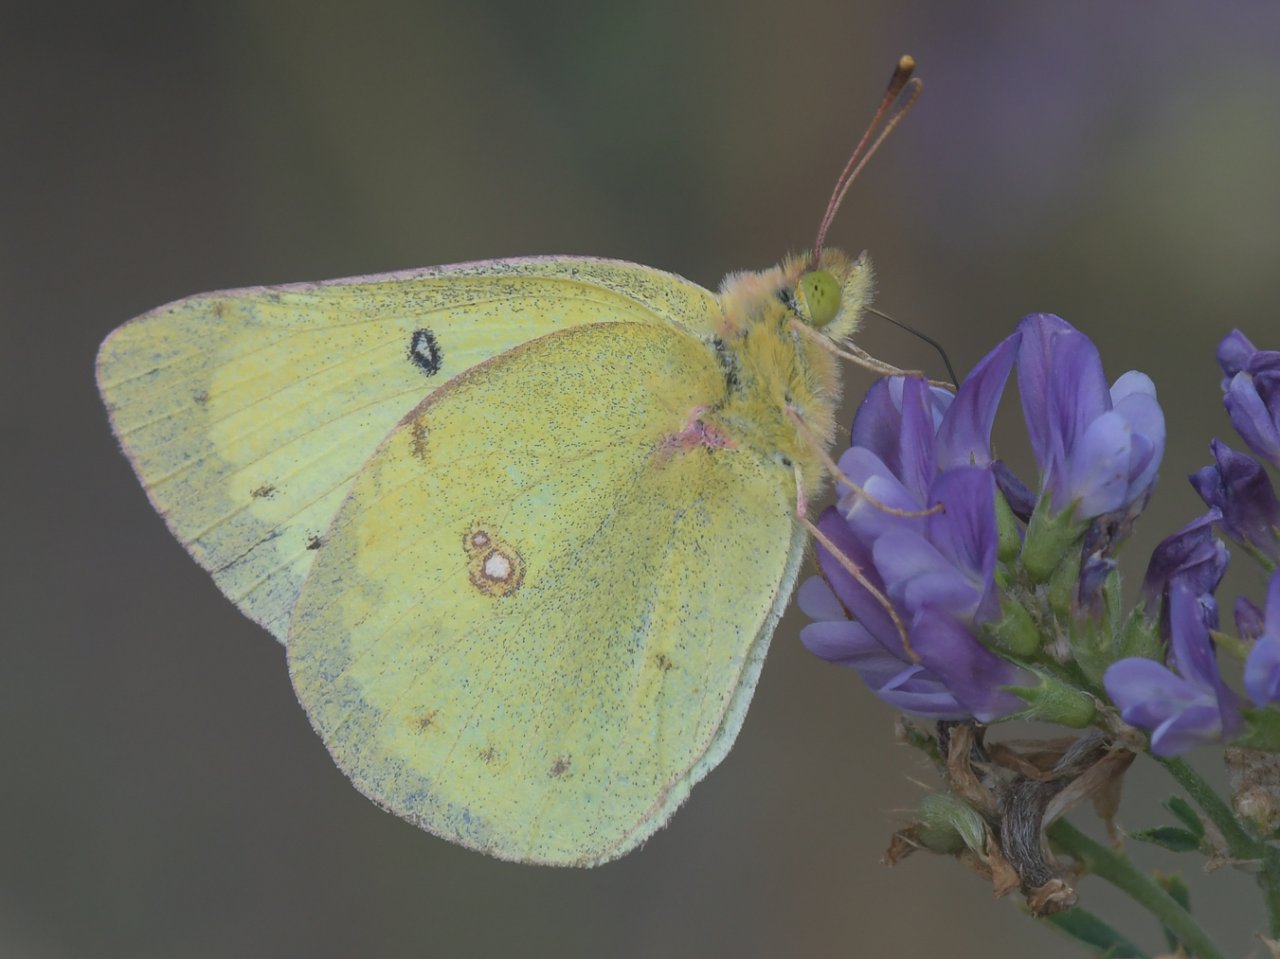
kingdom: Animalia
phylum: Arthropoda
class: Insecta
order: Lepidoptera
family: Pieridae
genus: Colias
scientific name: Colias philodice
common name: Clouded Sulphur
